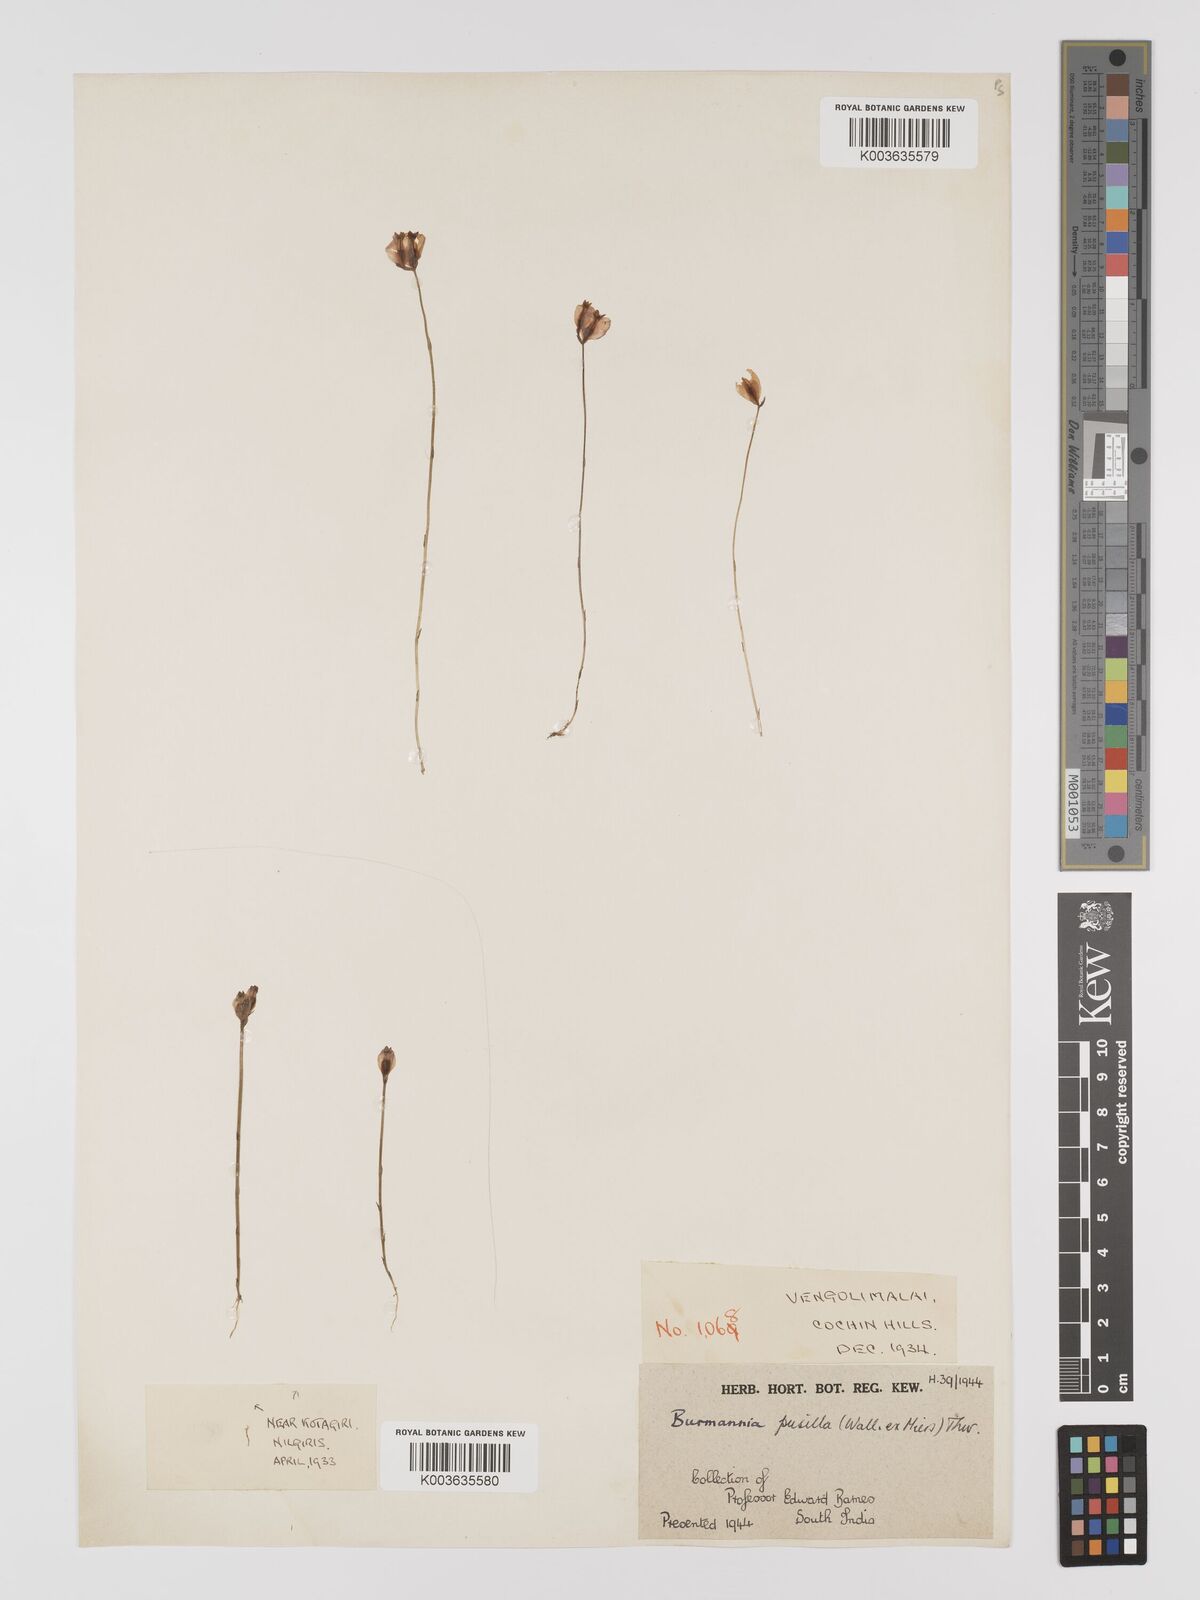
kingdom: Plantae
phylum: Tracheophyta
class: Liliopsida
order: Dioscoreales
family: Burmanniaceae
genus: Burmannia
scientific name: Burmannia pusilla
